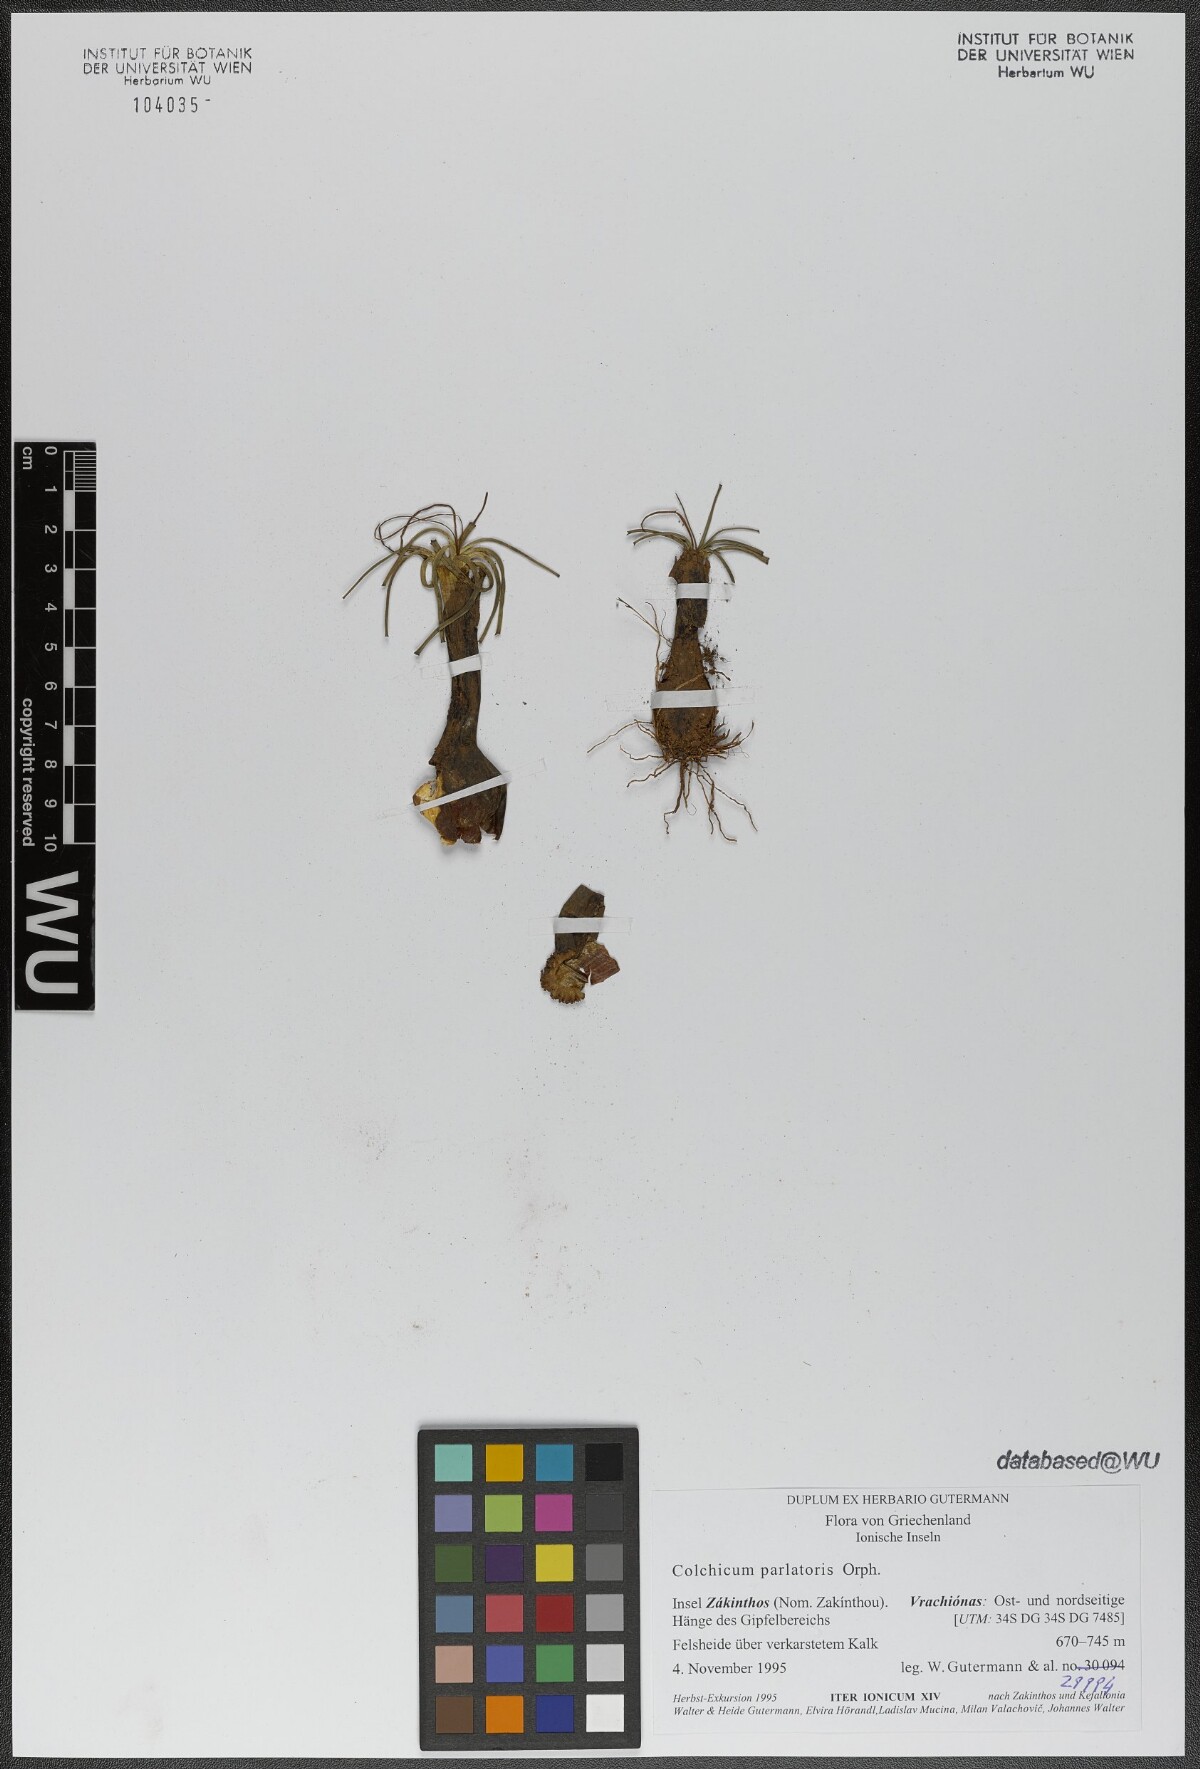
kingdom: Plantae
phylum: Tracheophyta
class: Liliopsida
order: Liliales
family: Colchicaceae
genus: Colchicum
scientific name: Colchicum parlatoris
